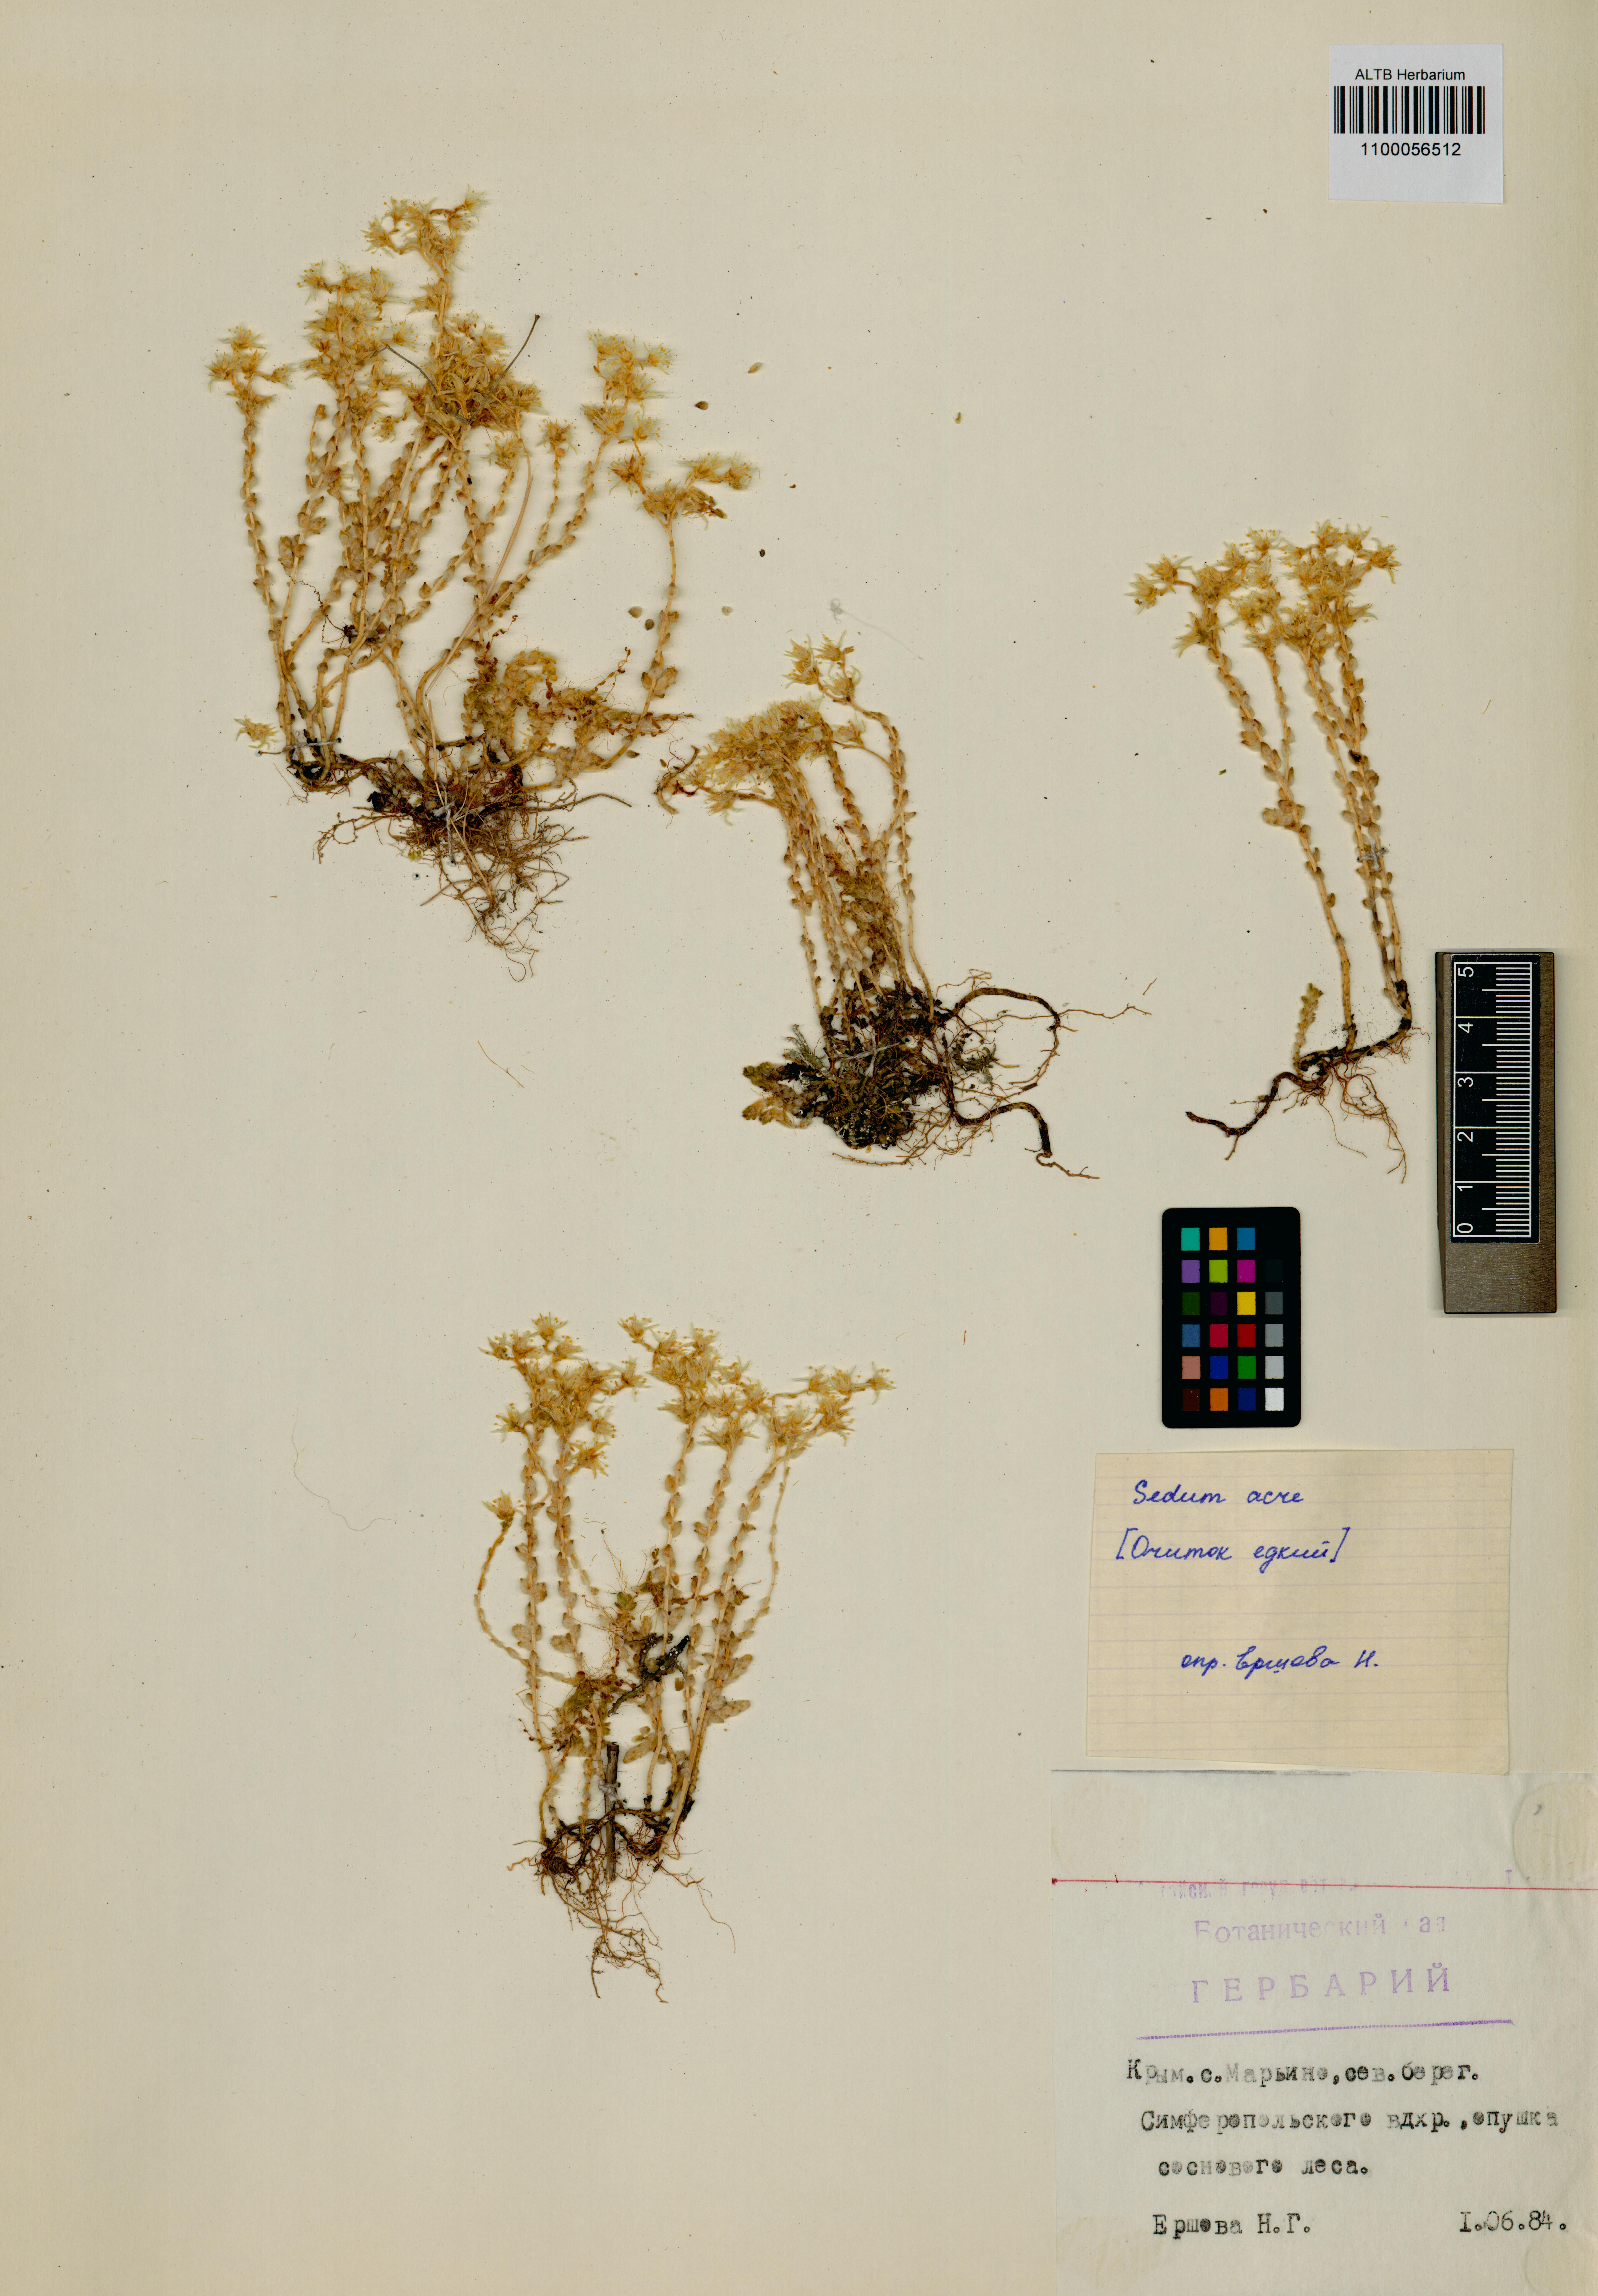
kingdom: Plantae
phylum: Tracheophyta
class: Magnoliopsida
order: Saxifragales
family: Crassulaceae
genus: Sedum
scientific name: Sedum acre
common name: Biting stonecrop
